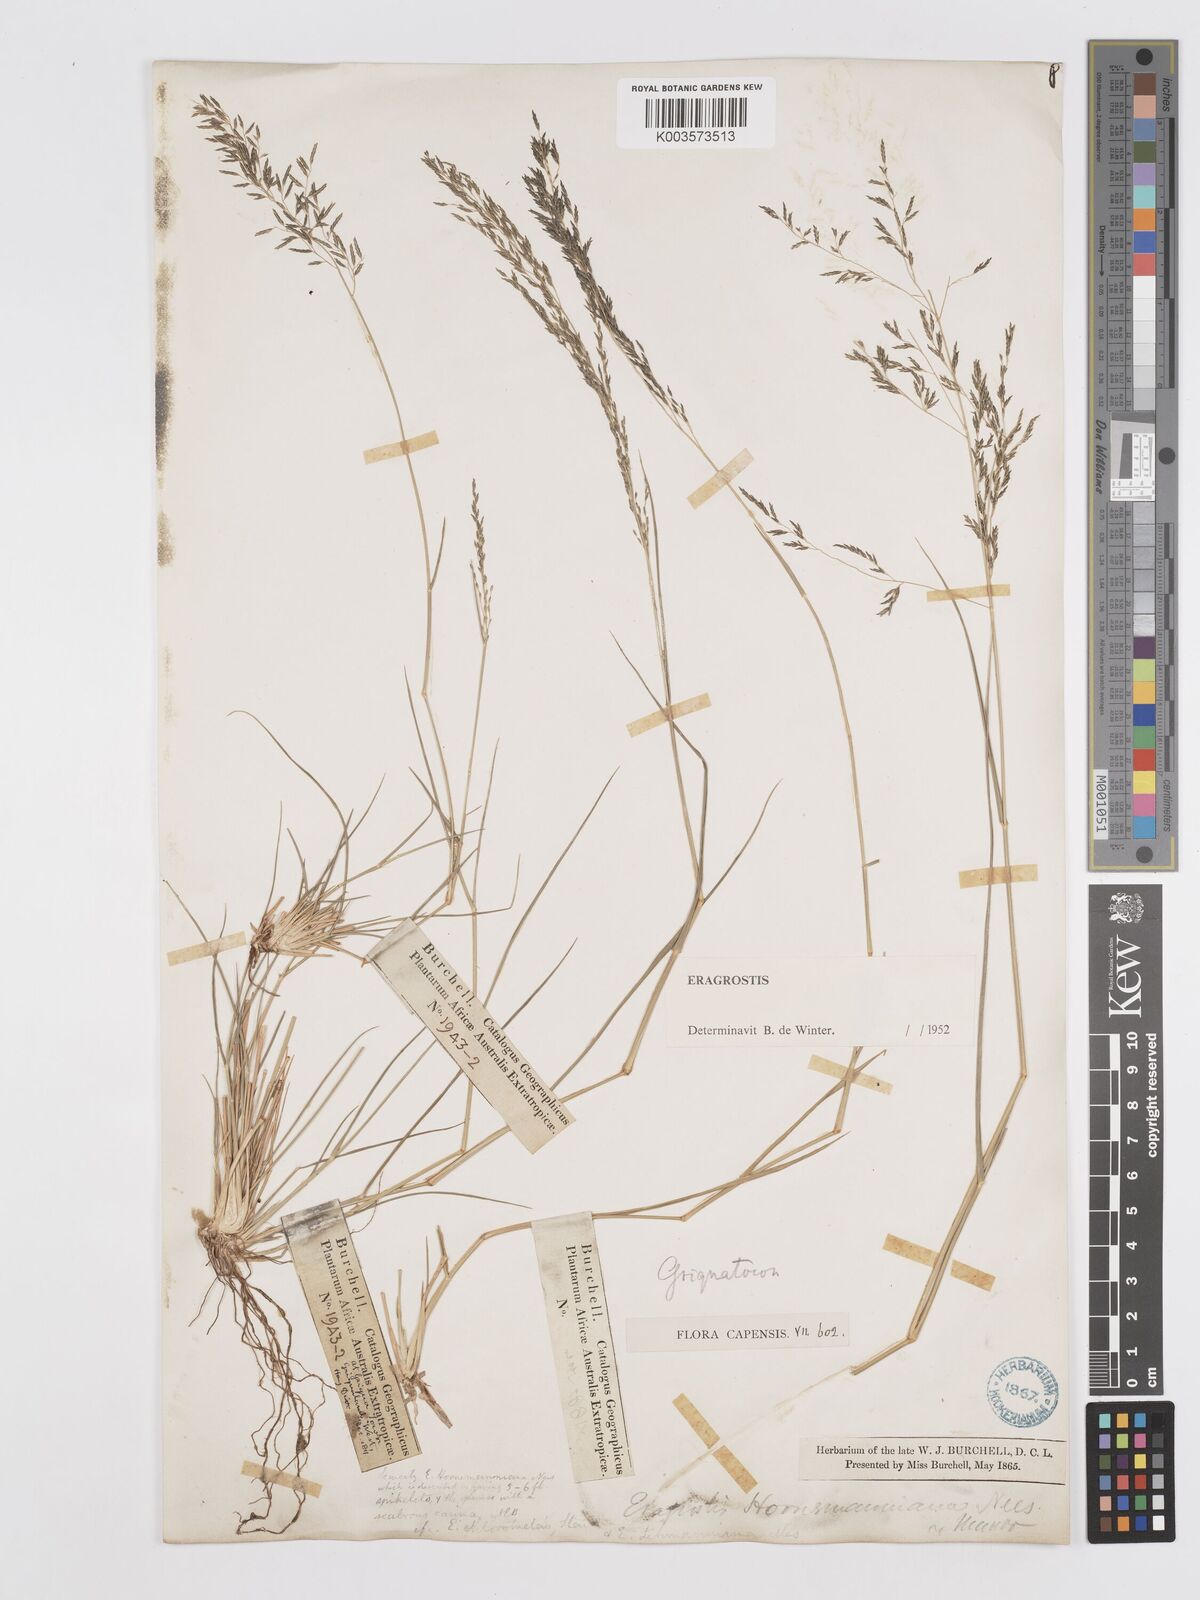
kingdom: Plantae
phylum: Tracheophyta
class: Liliopsida
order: Poales
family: Poaceae
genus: Eragrostis
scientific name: Eragrostis lehmanniana
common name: Lehmann lovegrass
